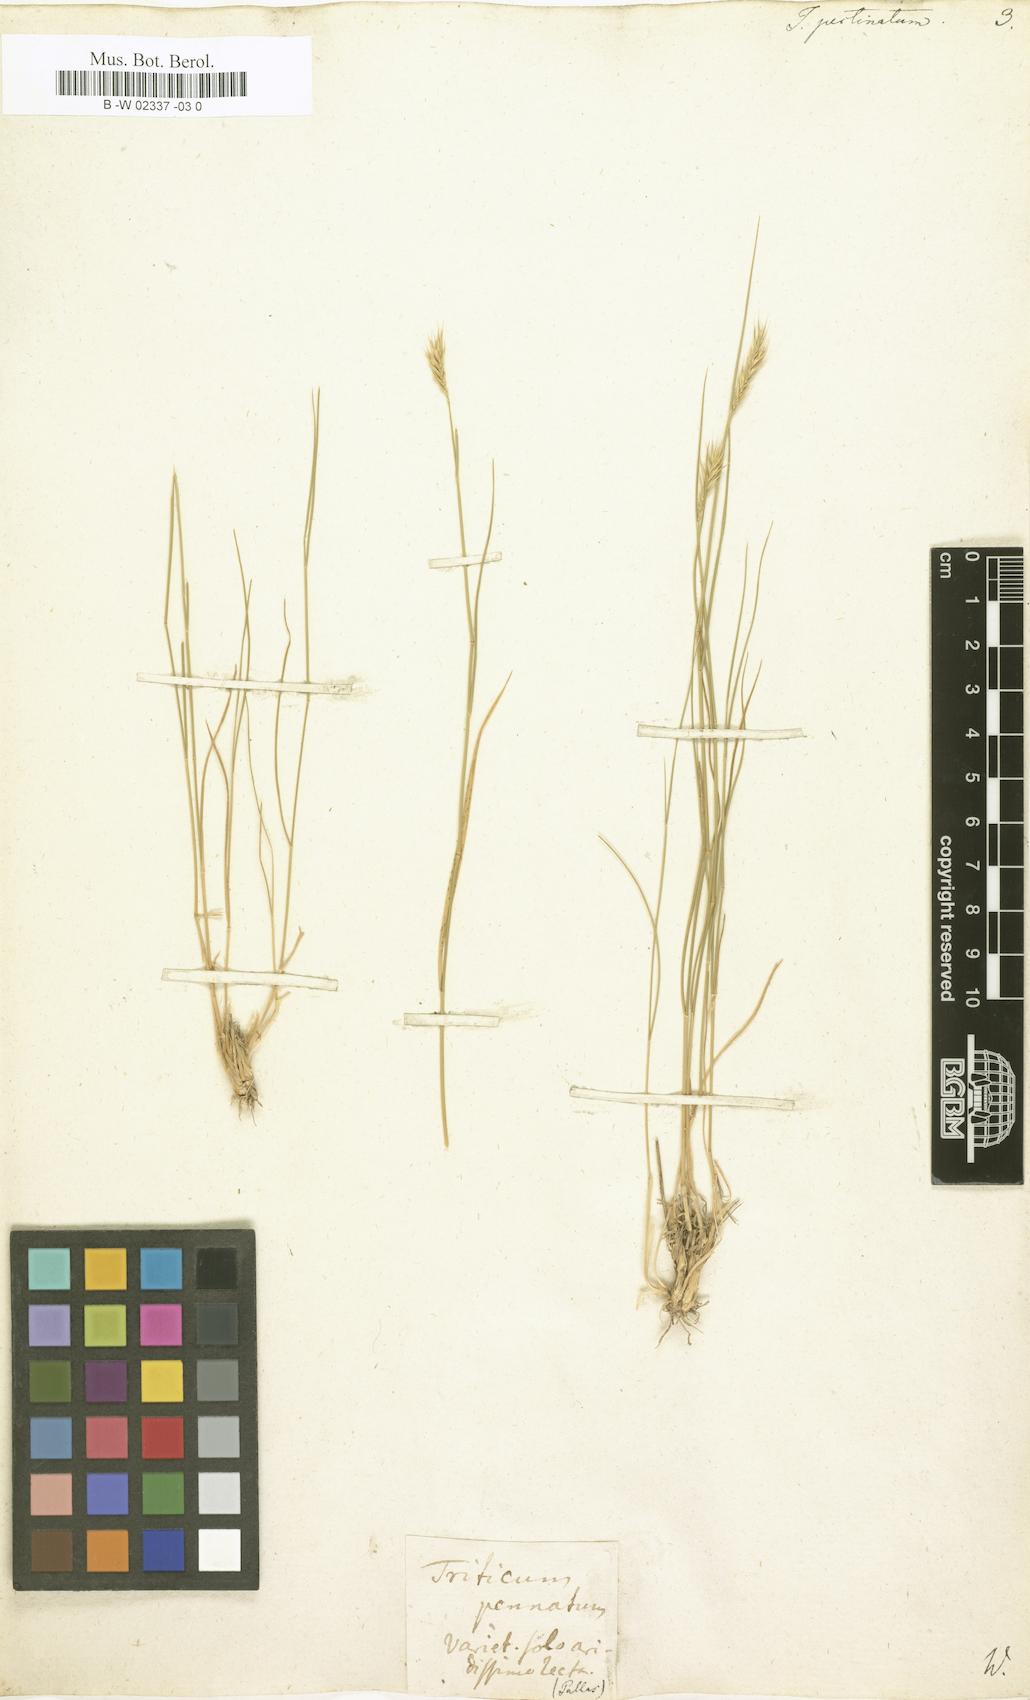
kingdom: Plantae
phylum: Tracheophyta
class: Liliopsida
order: Poales
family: Poaceae
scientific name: Poaceae
